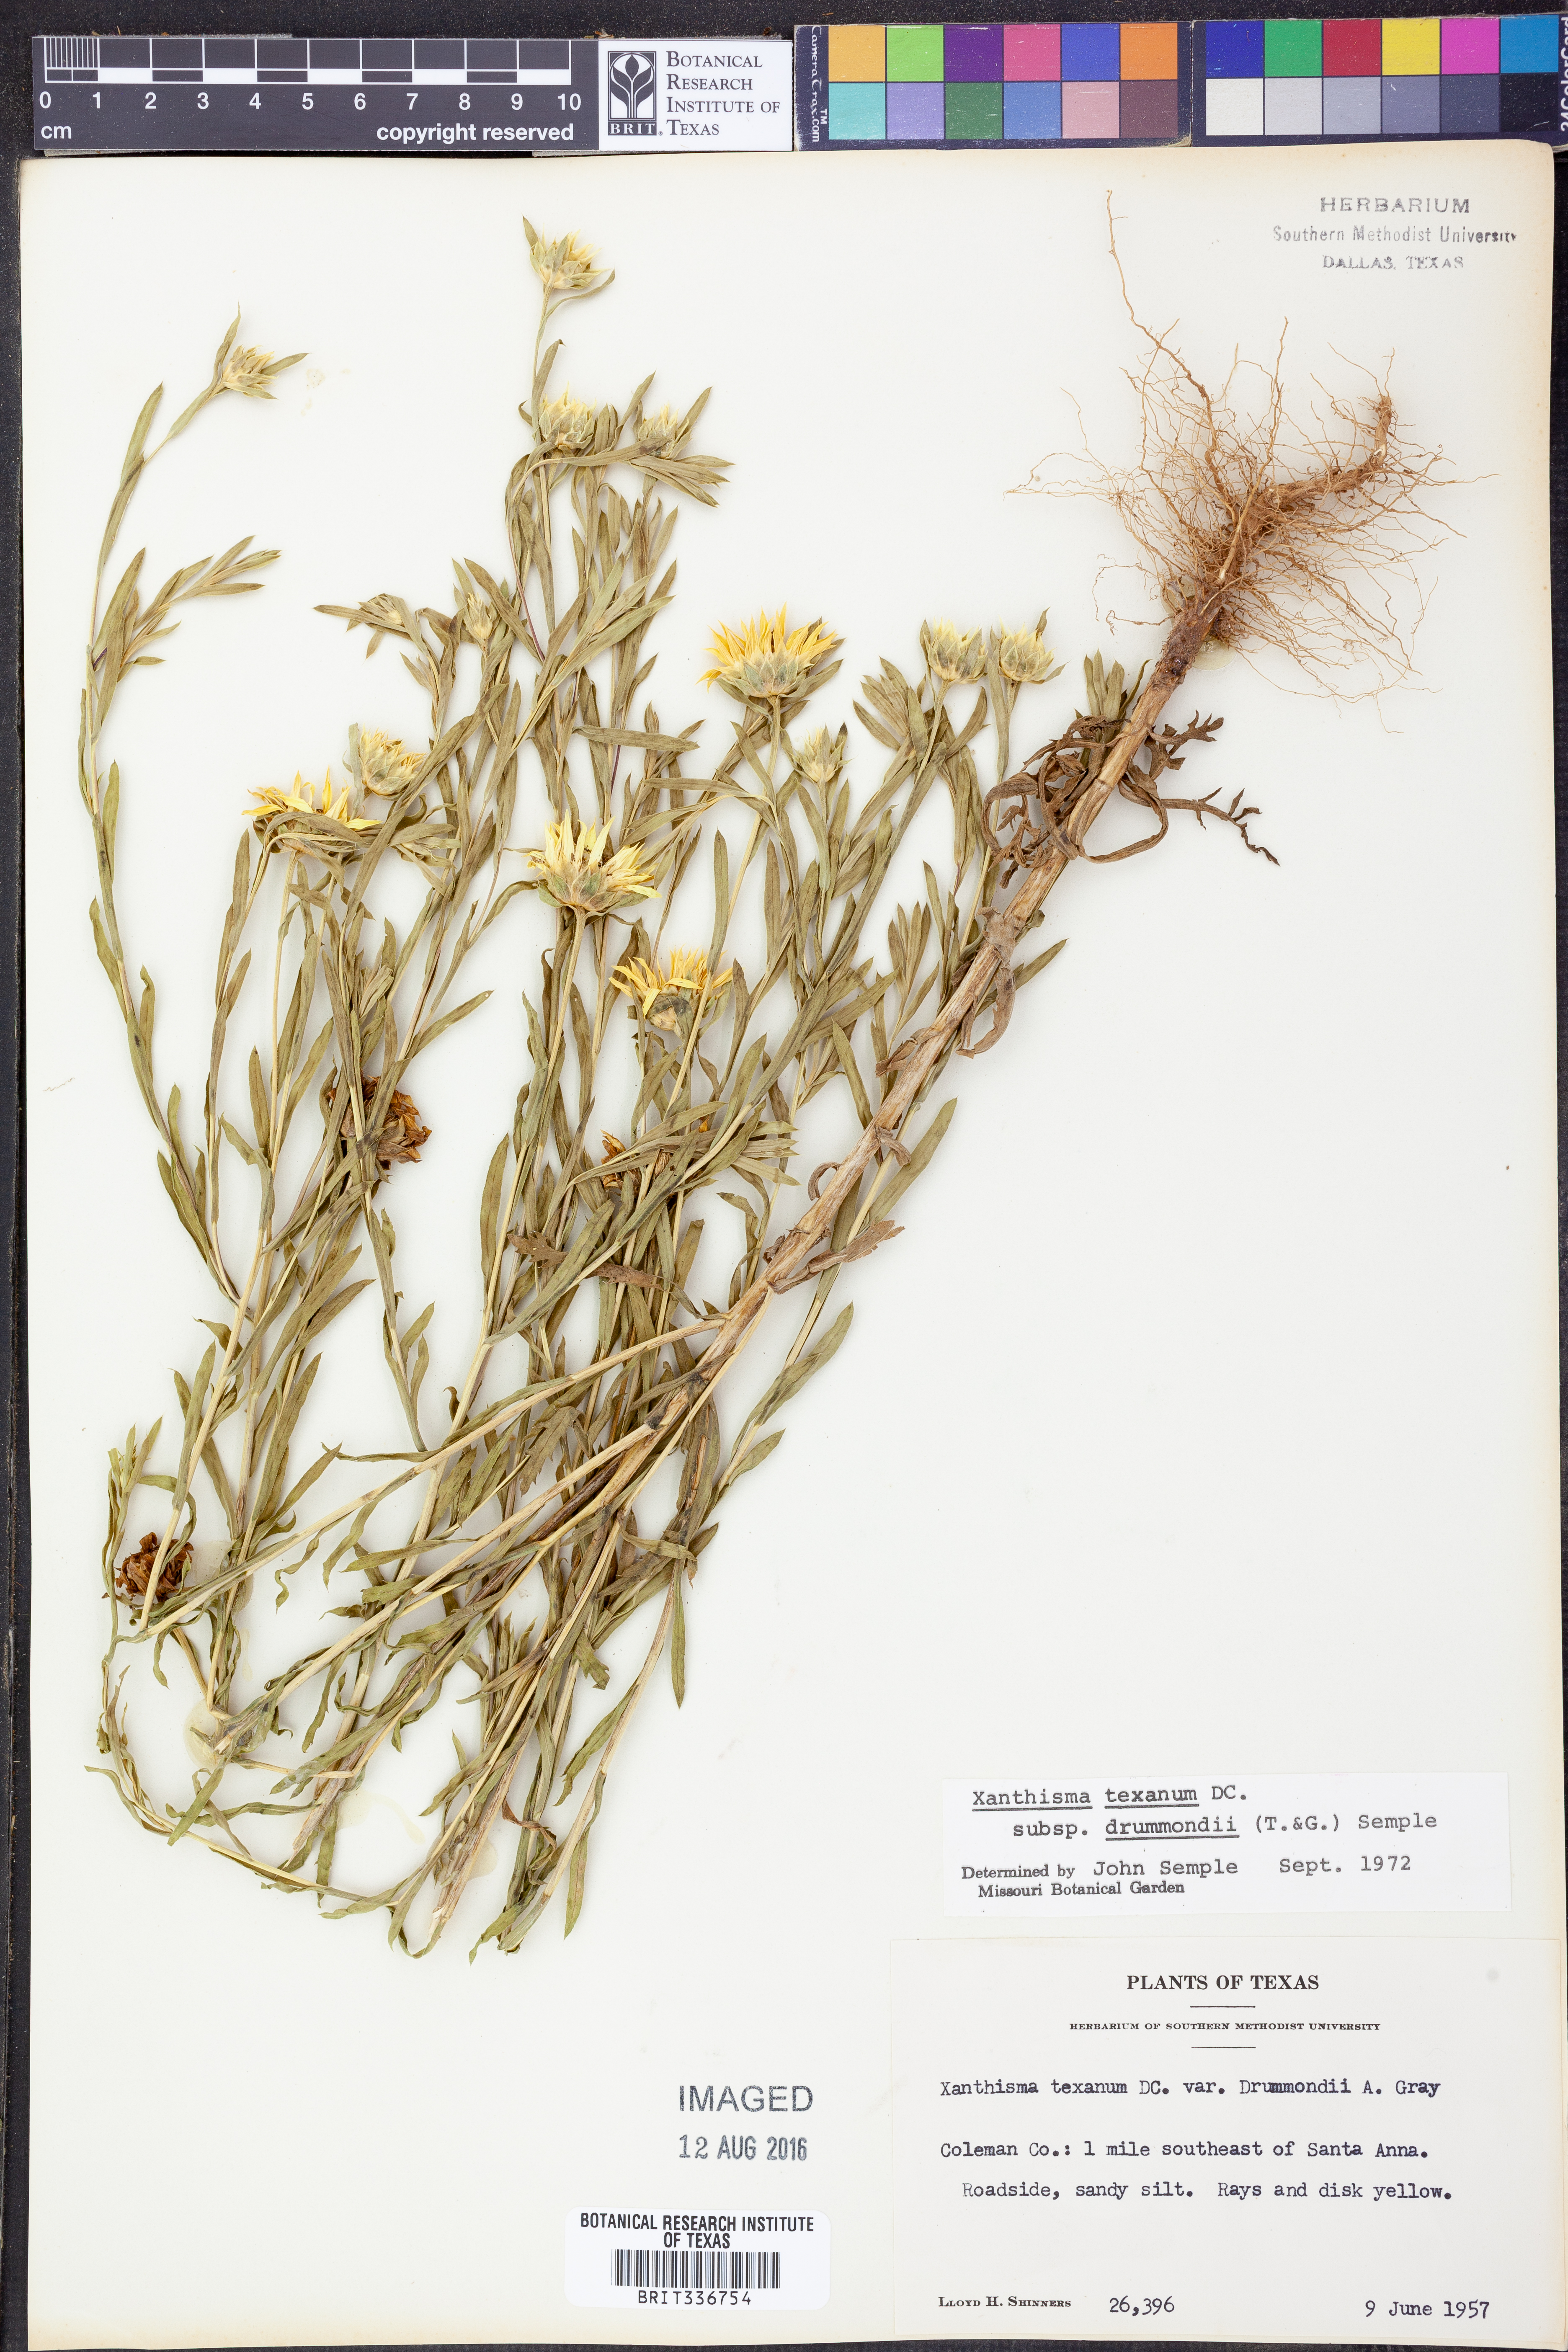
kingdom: Plantae
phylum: Tracheophyta
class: Magnoliopsida
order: Asterales
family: Asteraceae
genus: Xanthisma
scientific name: Xanthisma texanum
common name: Texas sleepy daisy
